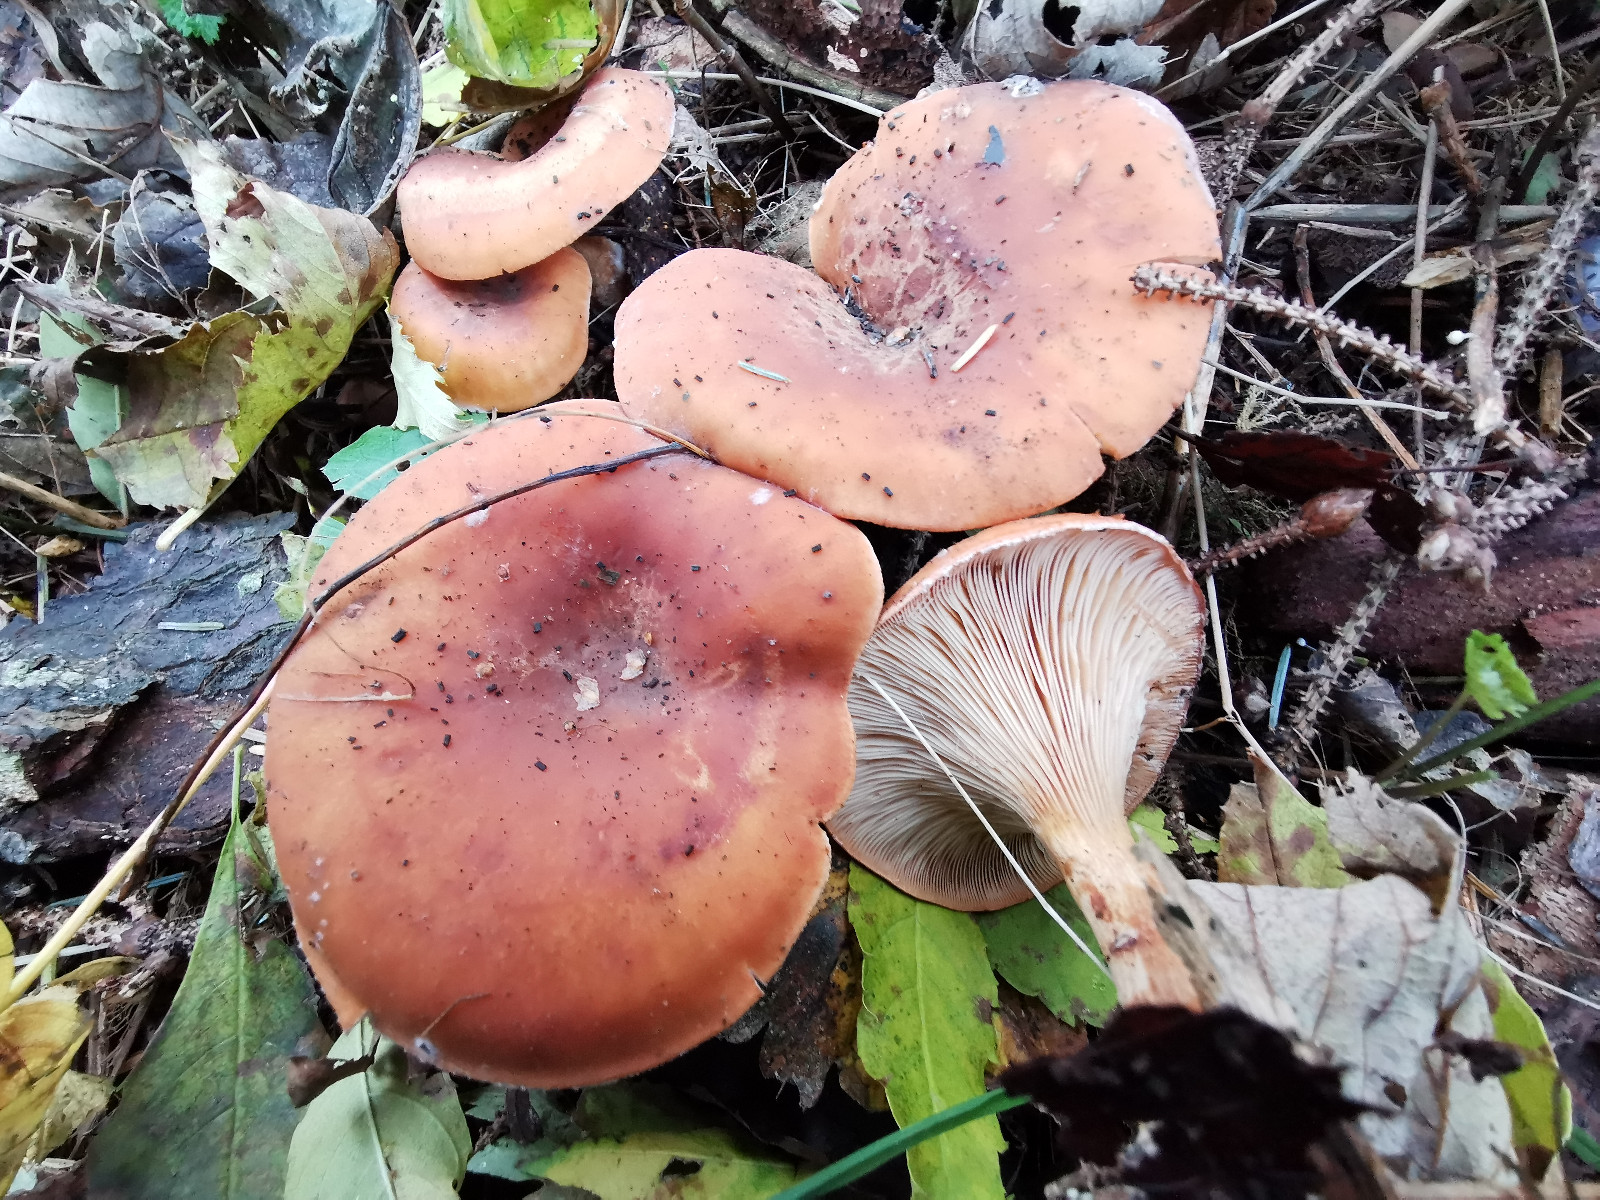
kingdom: Fungi
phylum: Basidiomycota
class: Agaricomycetes
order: Agaricales
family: Tricholomataceae
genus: Paralepista
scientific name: Paralepista flaccida
